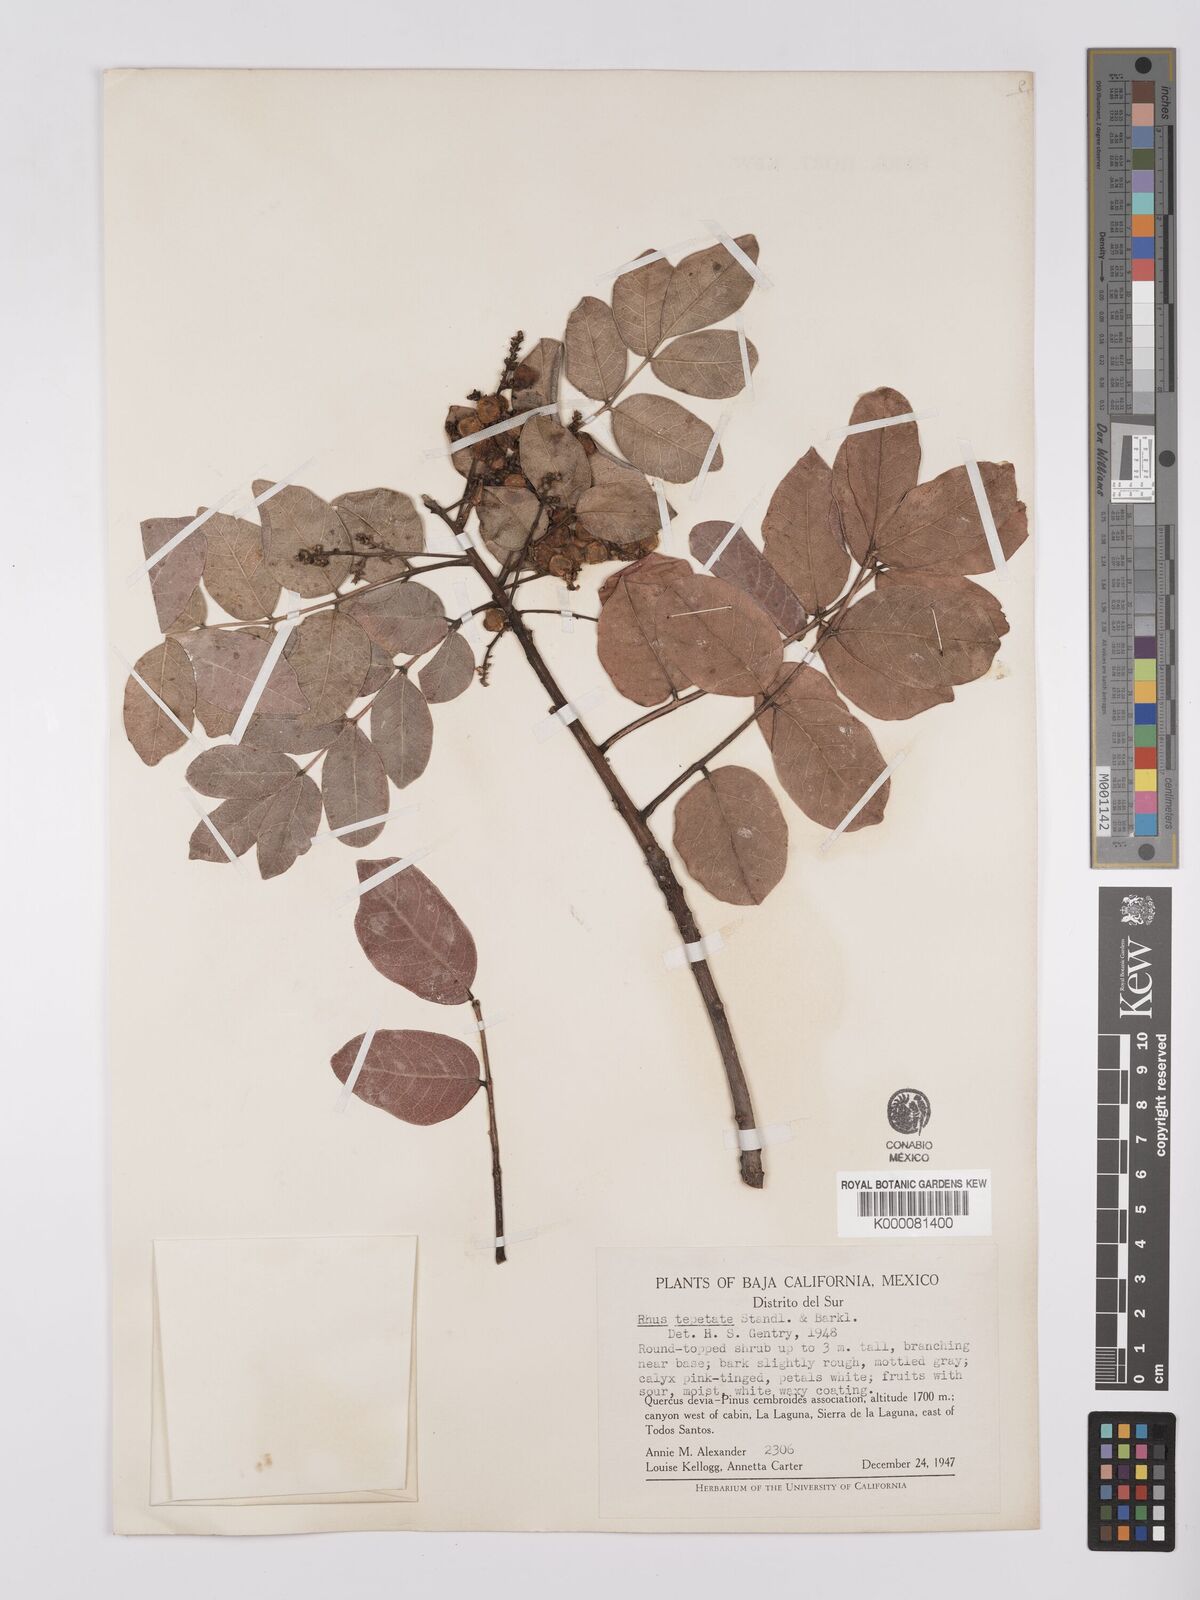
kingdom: Plantae
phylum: Tracheophyta
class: Magnoliopsida
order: Sapindales
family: Anacardiaceae
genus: Rhus
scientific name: Rhus tepetate
